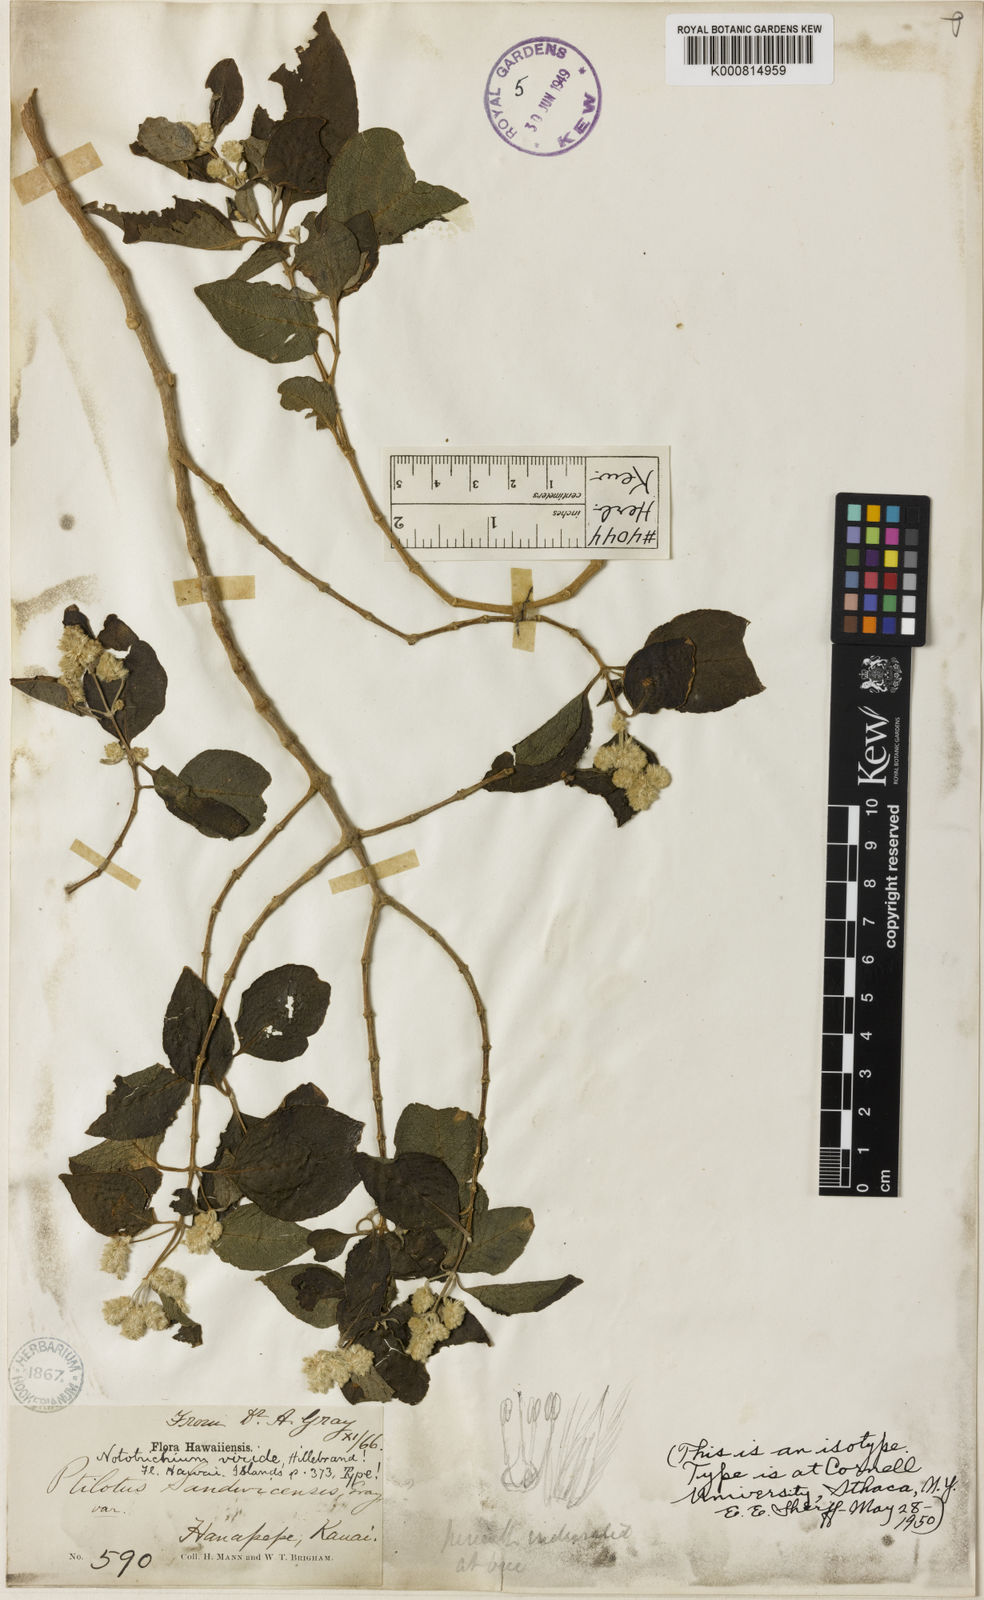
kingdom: Plantae
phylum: Tracheophyta
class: Magnoliopsida
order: Caryophyllales
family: Amaranthaceae
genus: Nototrichium
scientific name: Nototrichium sandwicense
